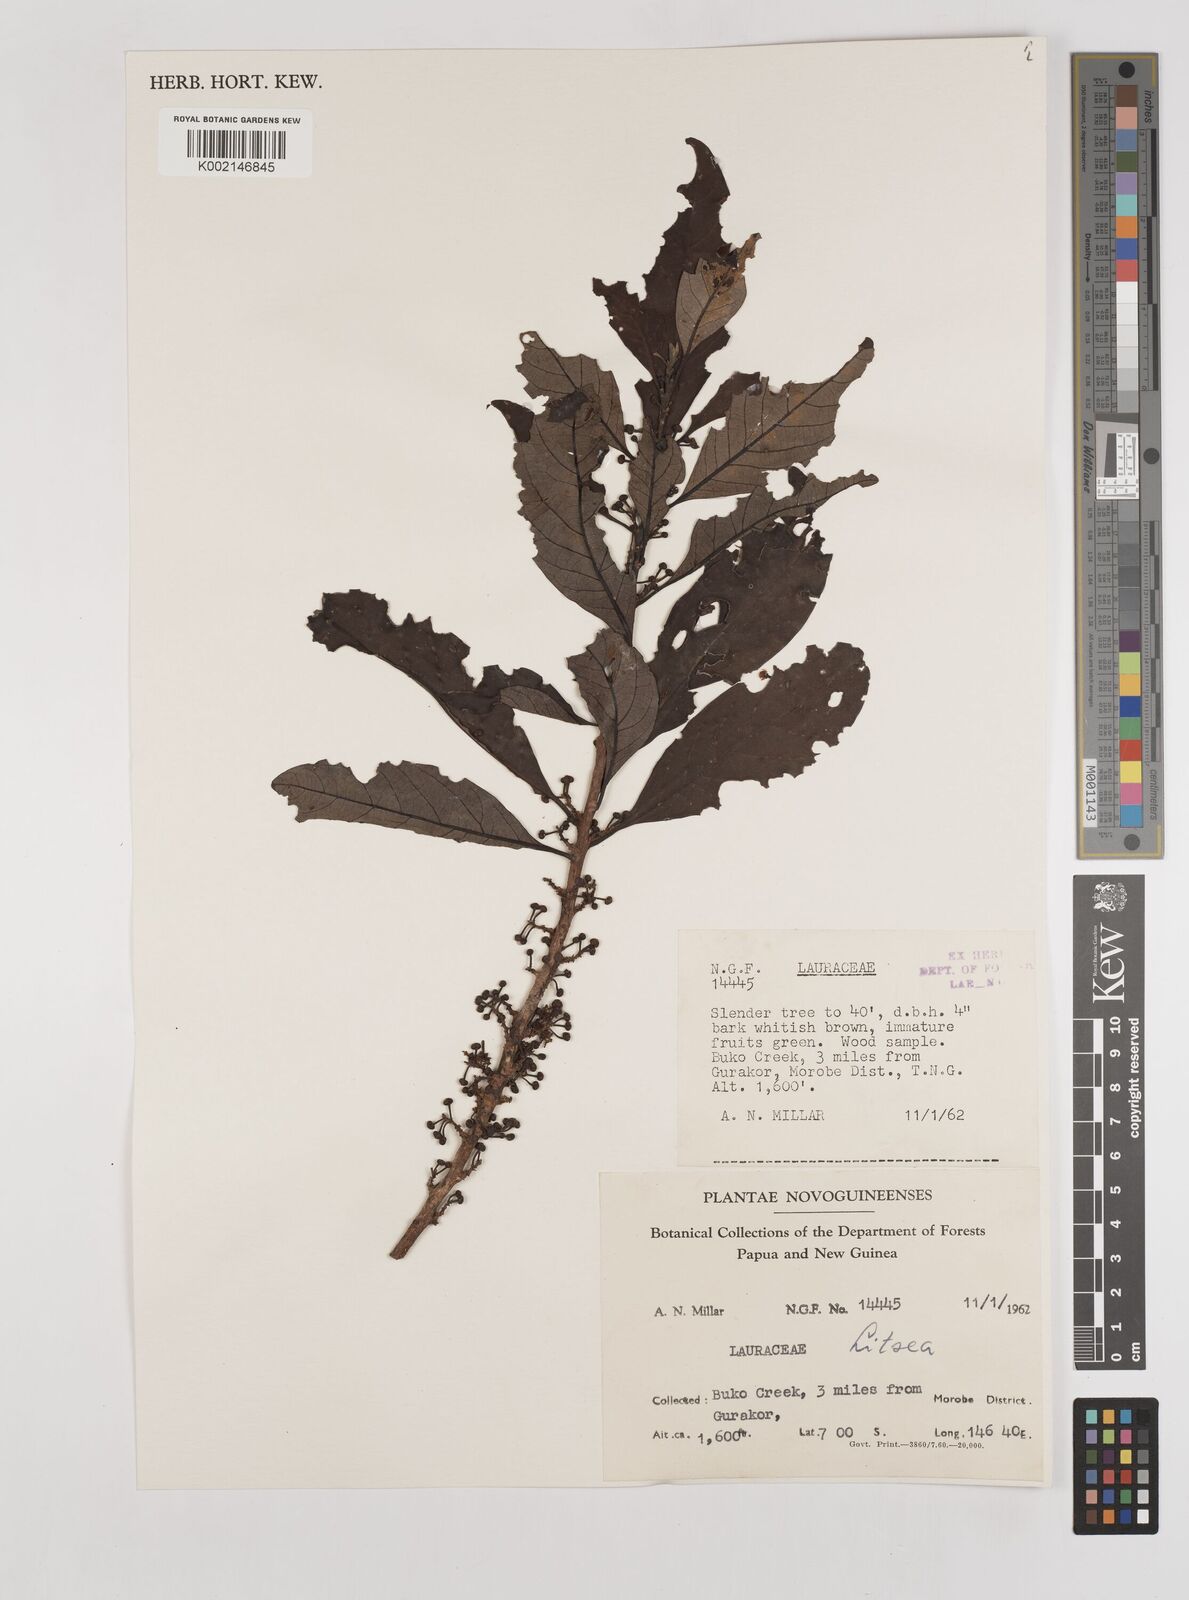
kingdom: Plantae
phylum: Tracheophyta
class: Magnoliopsida
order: Laurales
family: Lauraceae
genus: Litsea
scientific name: Litsea
